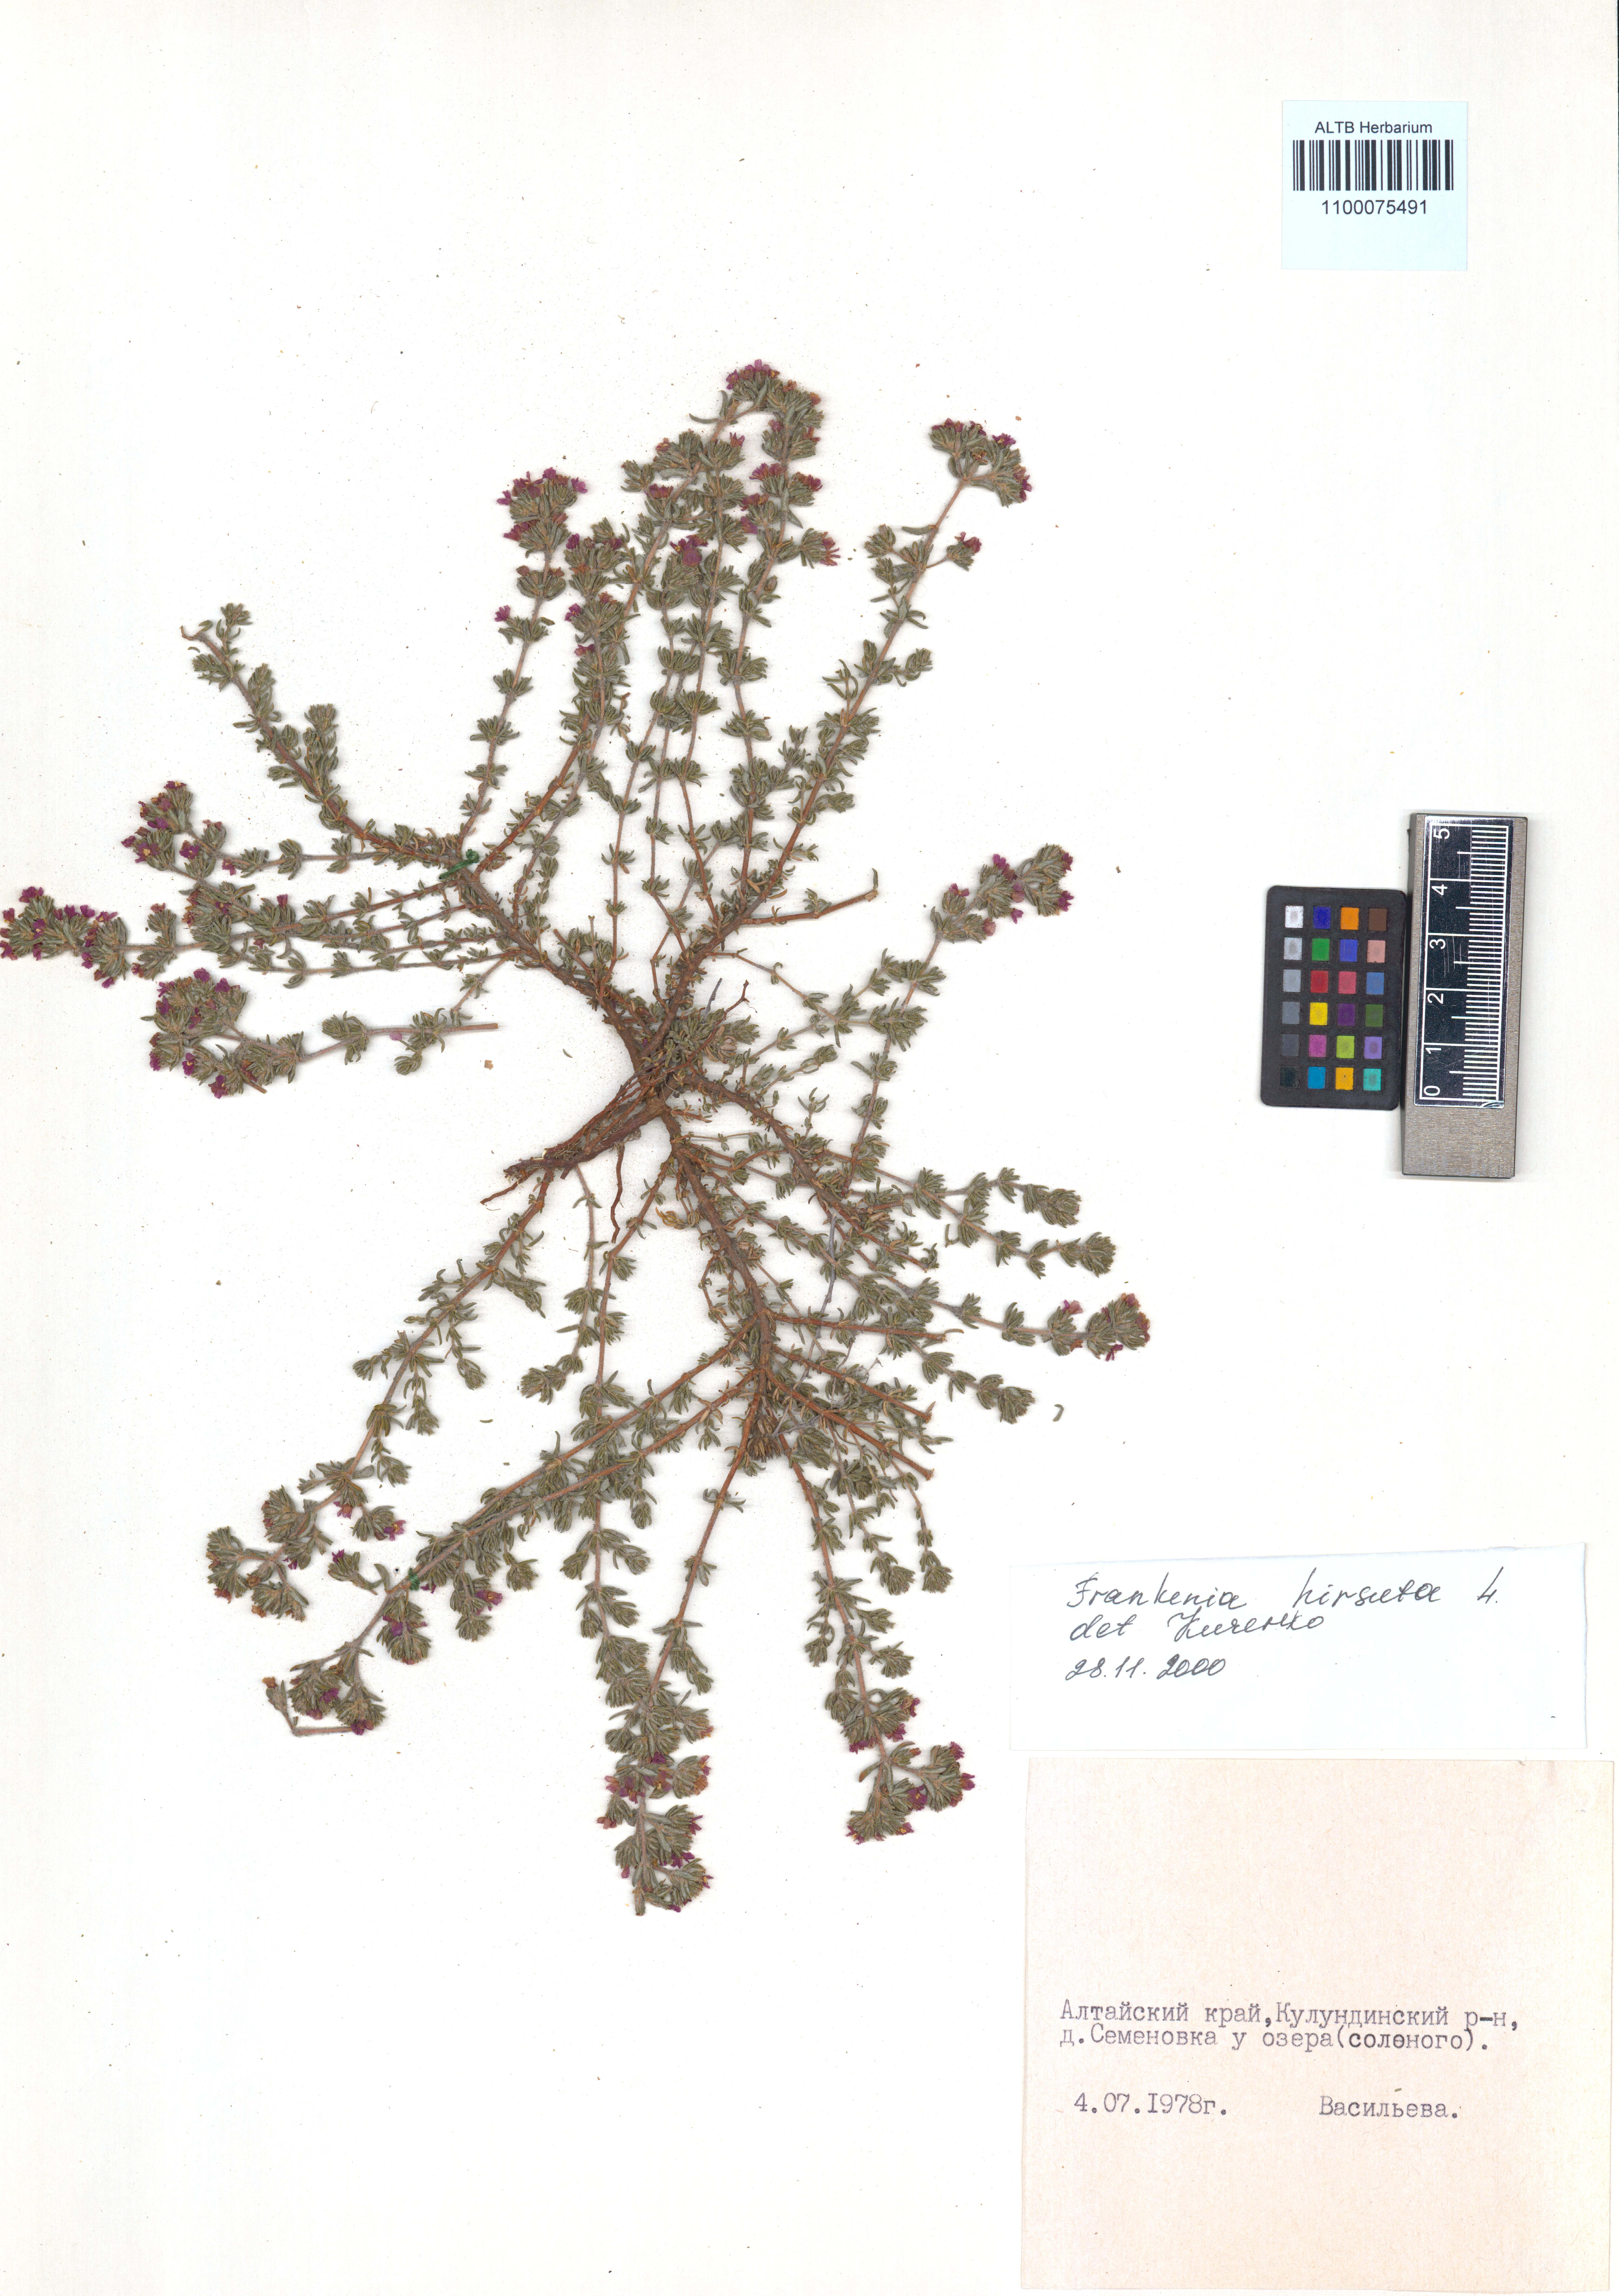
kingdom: Plantae
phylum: Tracheophyta
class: Magnoliopsida
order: Caryophyllales
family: Frankeniaceae
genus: Frankenia
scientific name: Frankenia hirsuta
